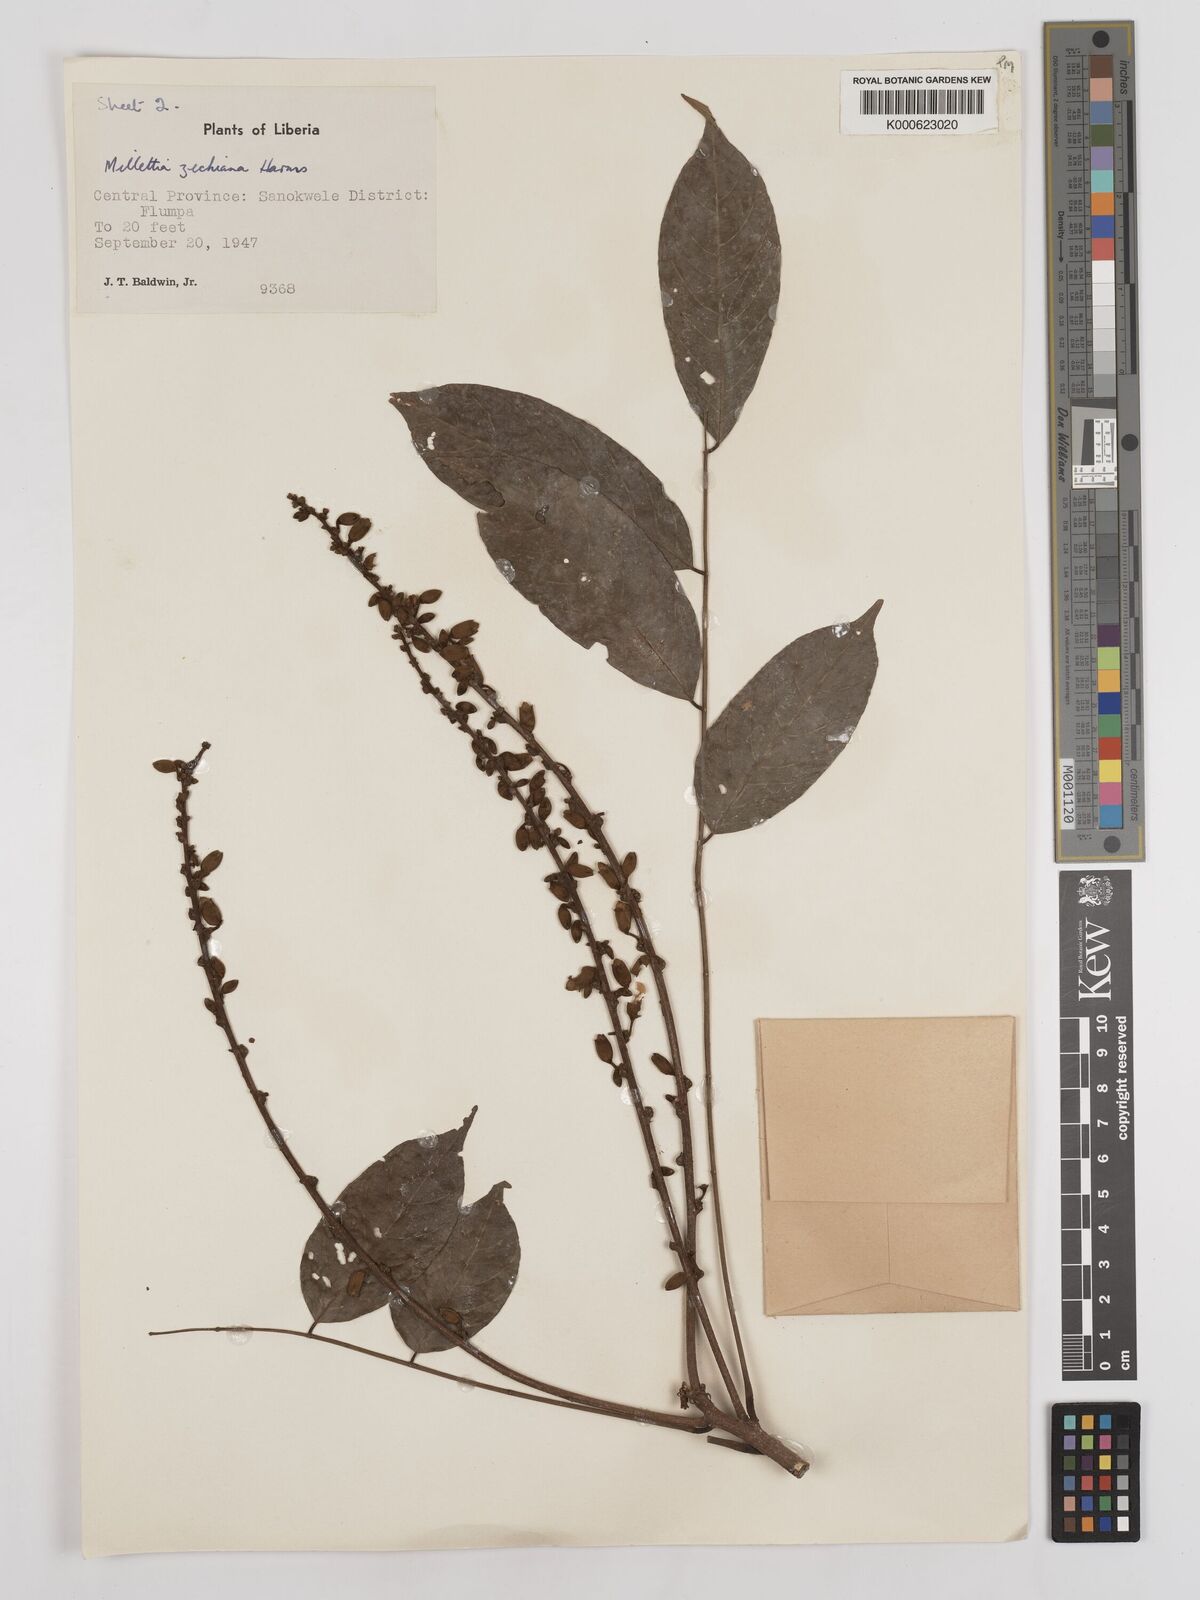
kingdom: Plantae
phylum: Tracheophyta
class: Magnoliopsida
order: Fabales
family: Fabaceae
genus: Millettia
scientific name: Millettia zechiana
